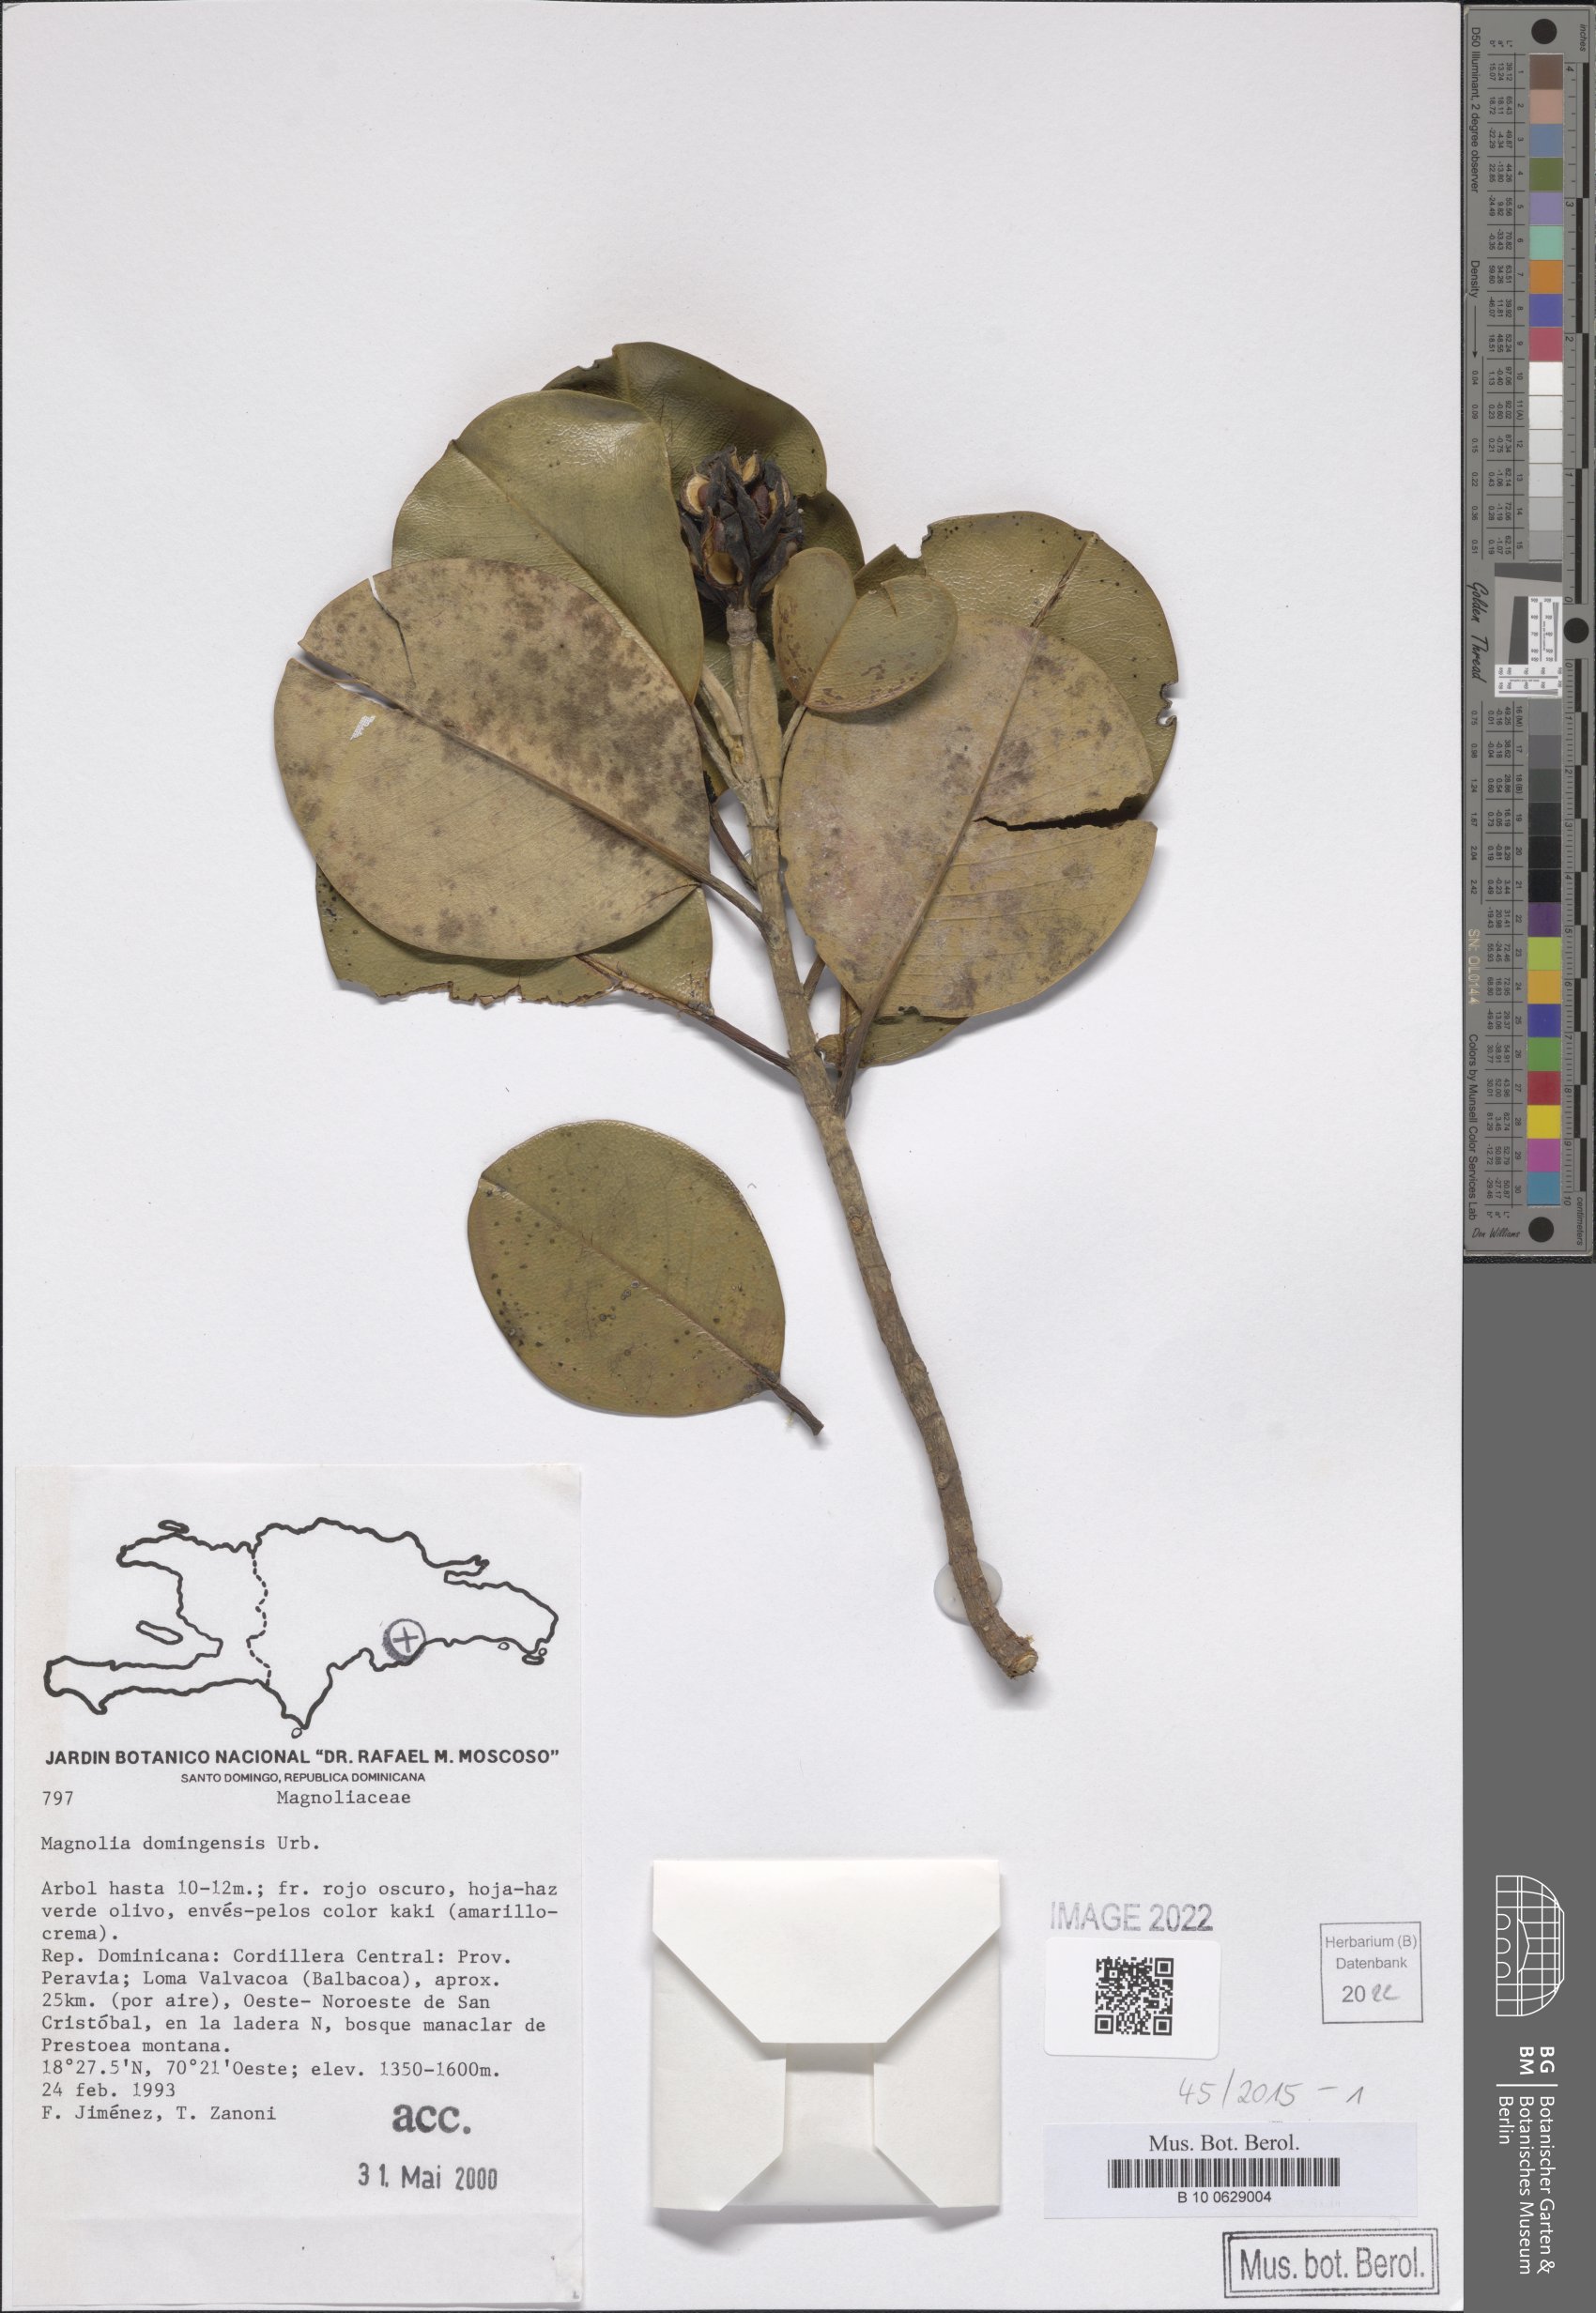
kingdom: Plantae
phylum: Tracheophyta
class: Magnoliopsida
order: Magnoliales
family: Magnoliaceae
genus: Magnolia
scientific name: Magnolia domingensis
